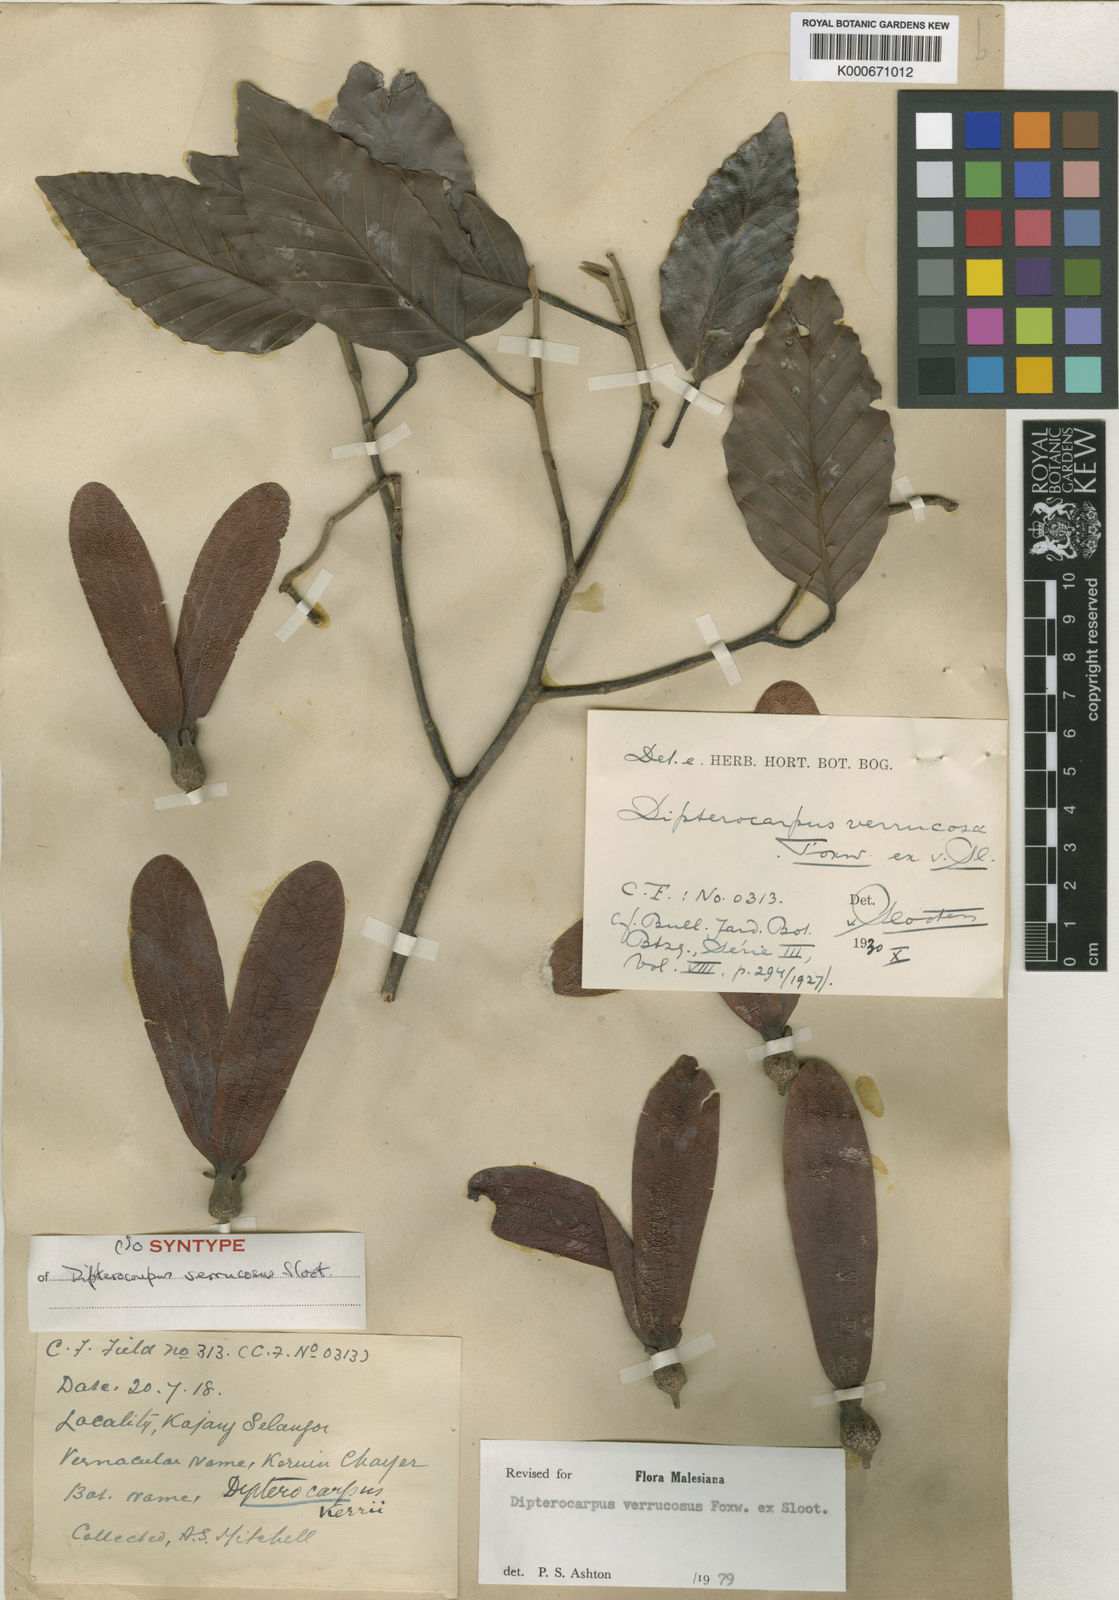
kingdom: Plantae
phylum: Tracheophyta
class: Magnoliopsida
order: Malvales
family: Dipterocarpaceae
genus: Dipterocarpus
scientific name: Dipterocarpus verrucosus
